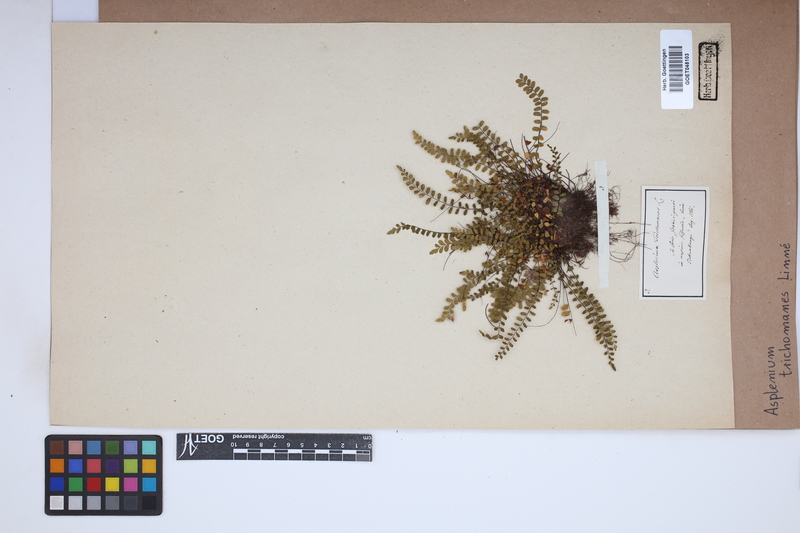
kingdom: Plantae
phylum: Tracheophyta
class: Polypodiopsida
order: Polypodiales
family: Aspleniaceae
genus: Asplenium
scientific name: Asplenium trichomanes
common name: Maidenhair spleenwort
